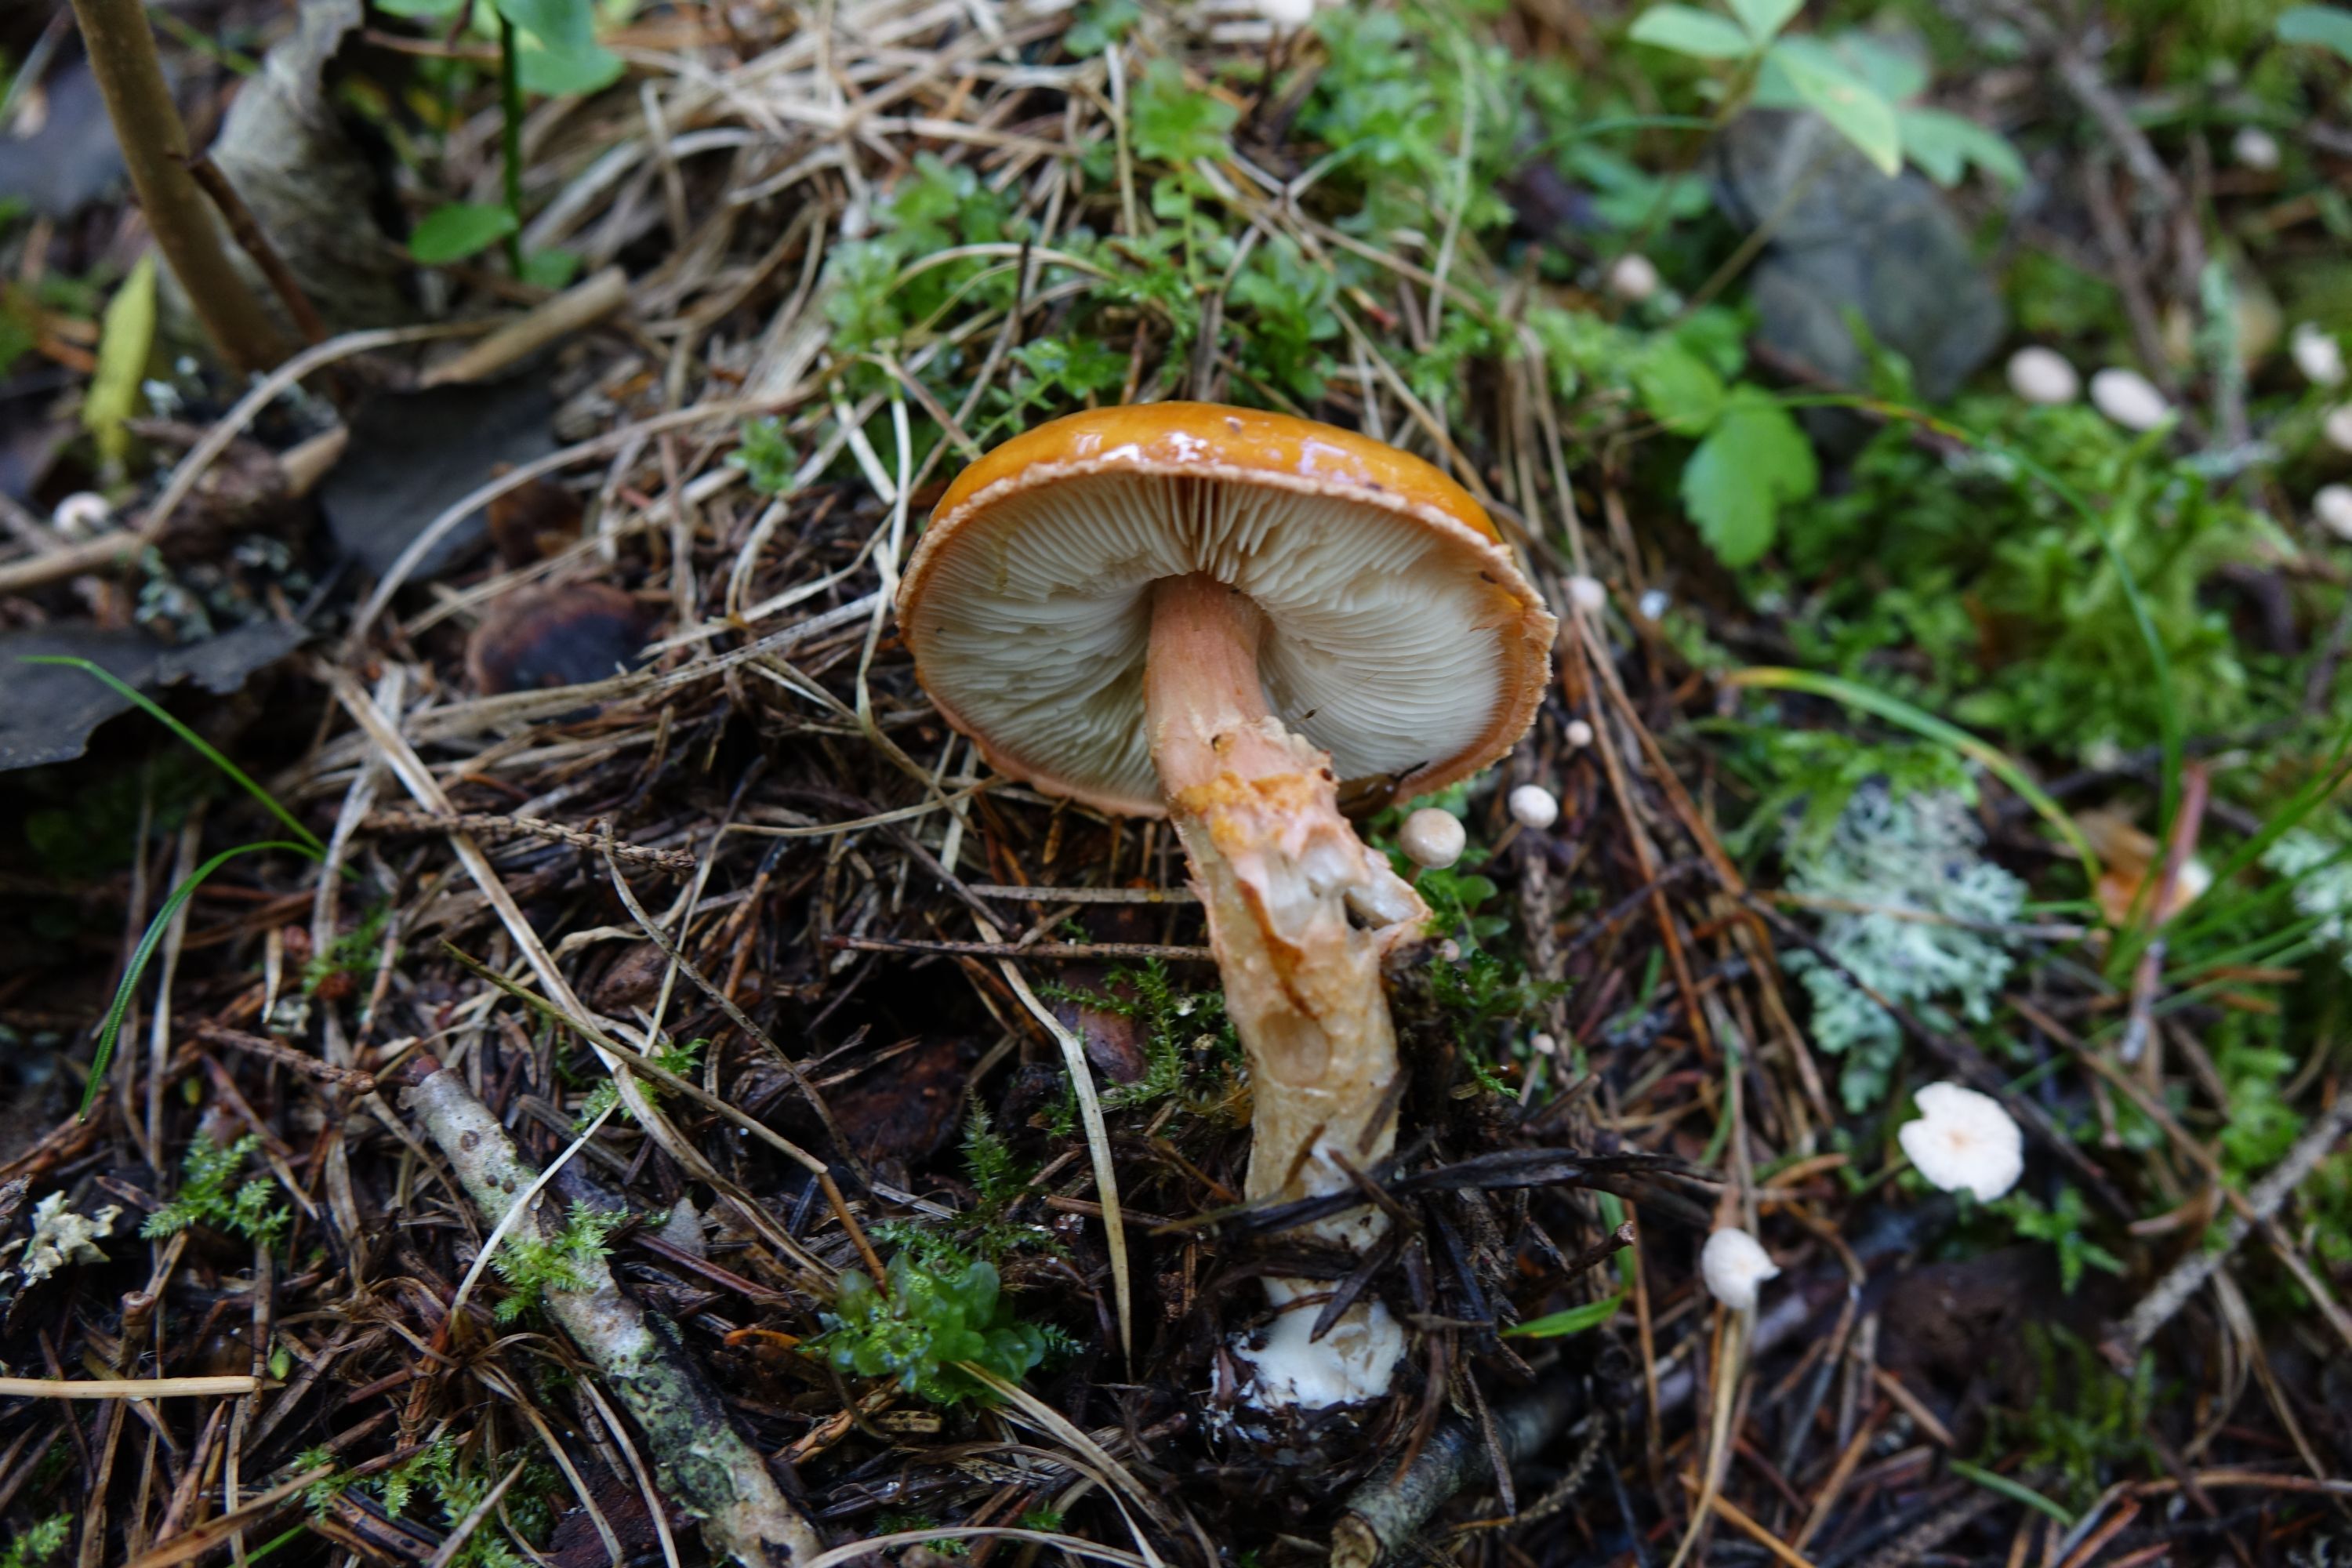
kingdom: Fungi
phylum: Basidiomycota
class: Agaricomycetes
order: Agaricales
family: Amanitaceae
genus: Limacella
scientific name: Limacella delicata
